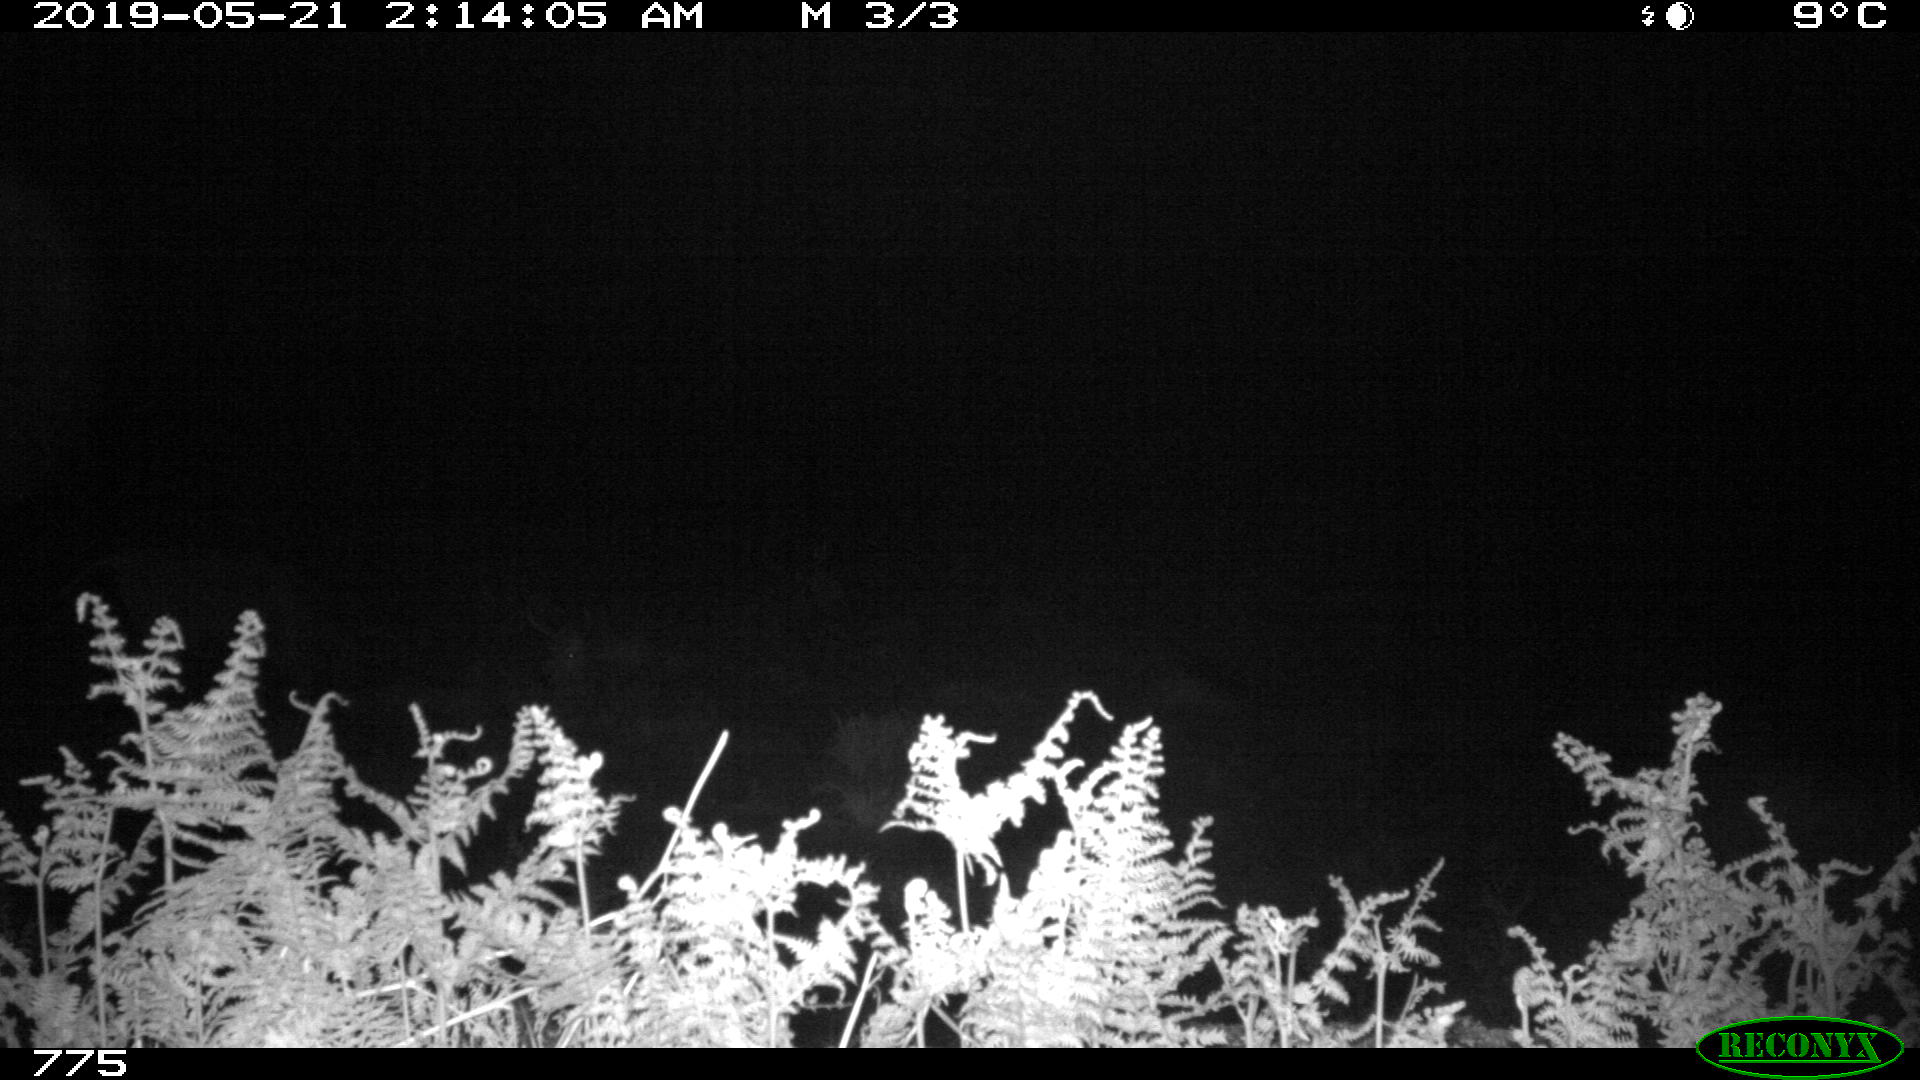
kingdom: Animalia
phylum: Chordata
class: Mammalia
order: Artiodactyla
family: Bovidae
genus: Bos
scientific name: Bos taurus
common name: Domesticated cattle
